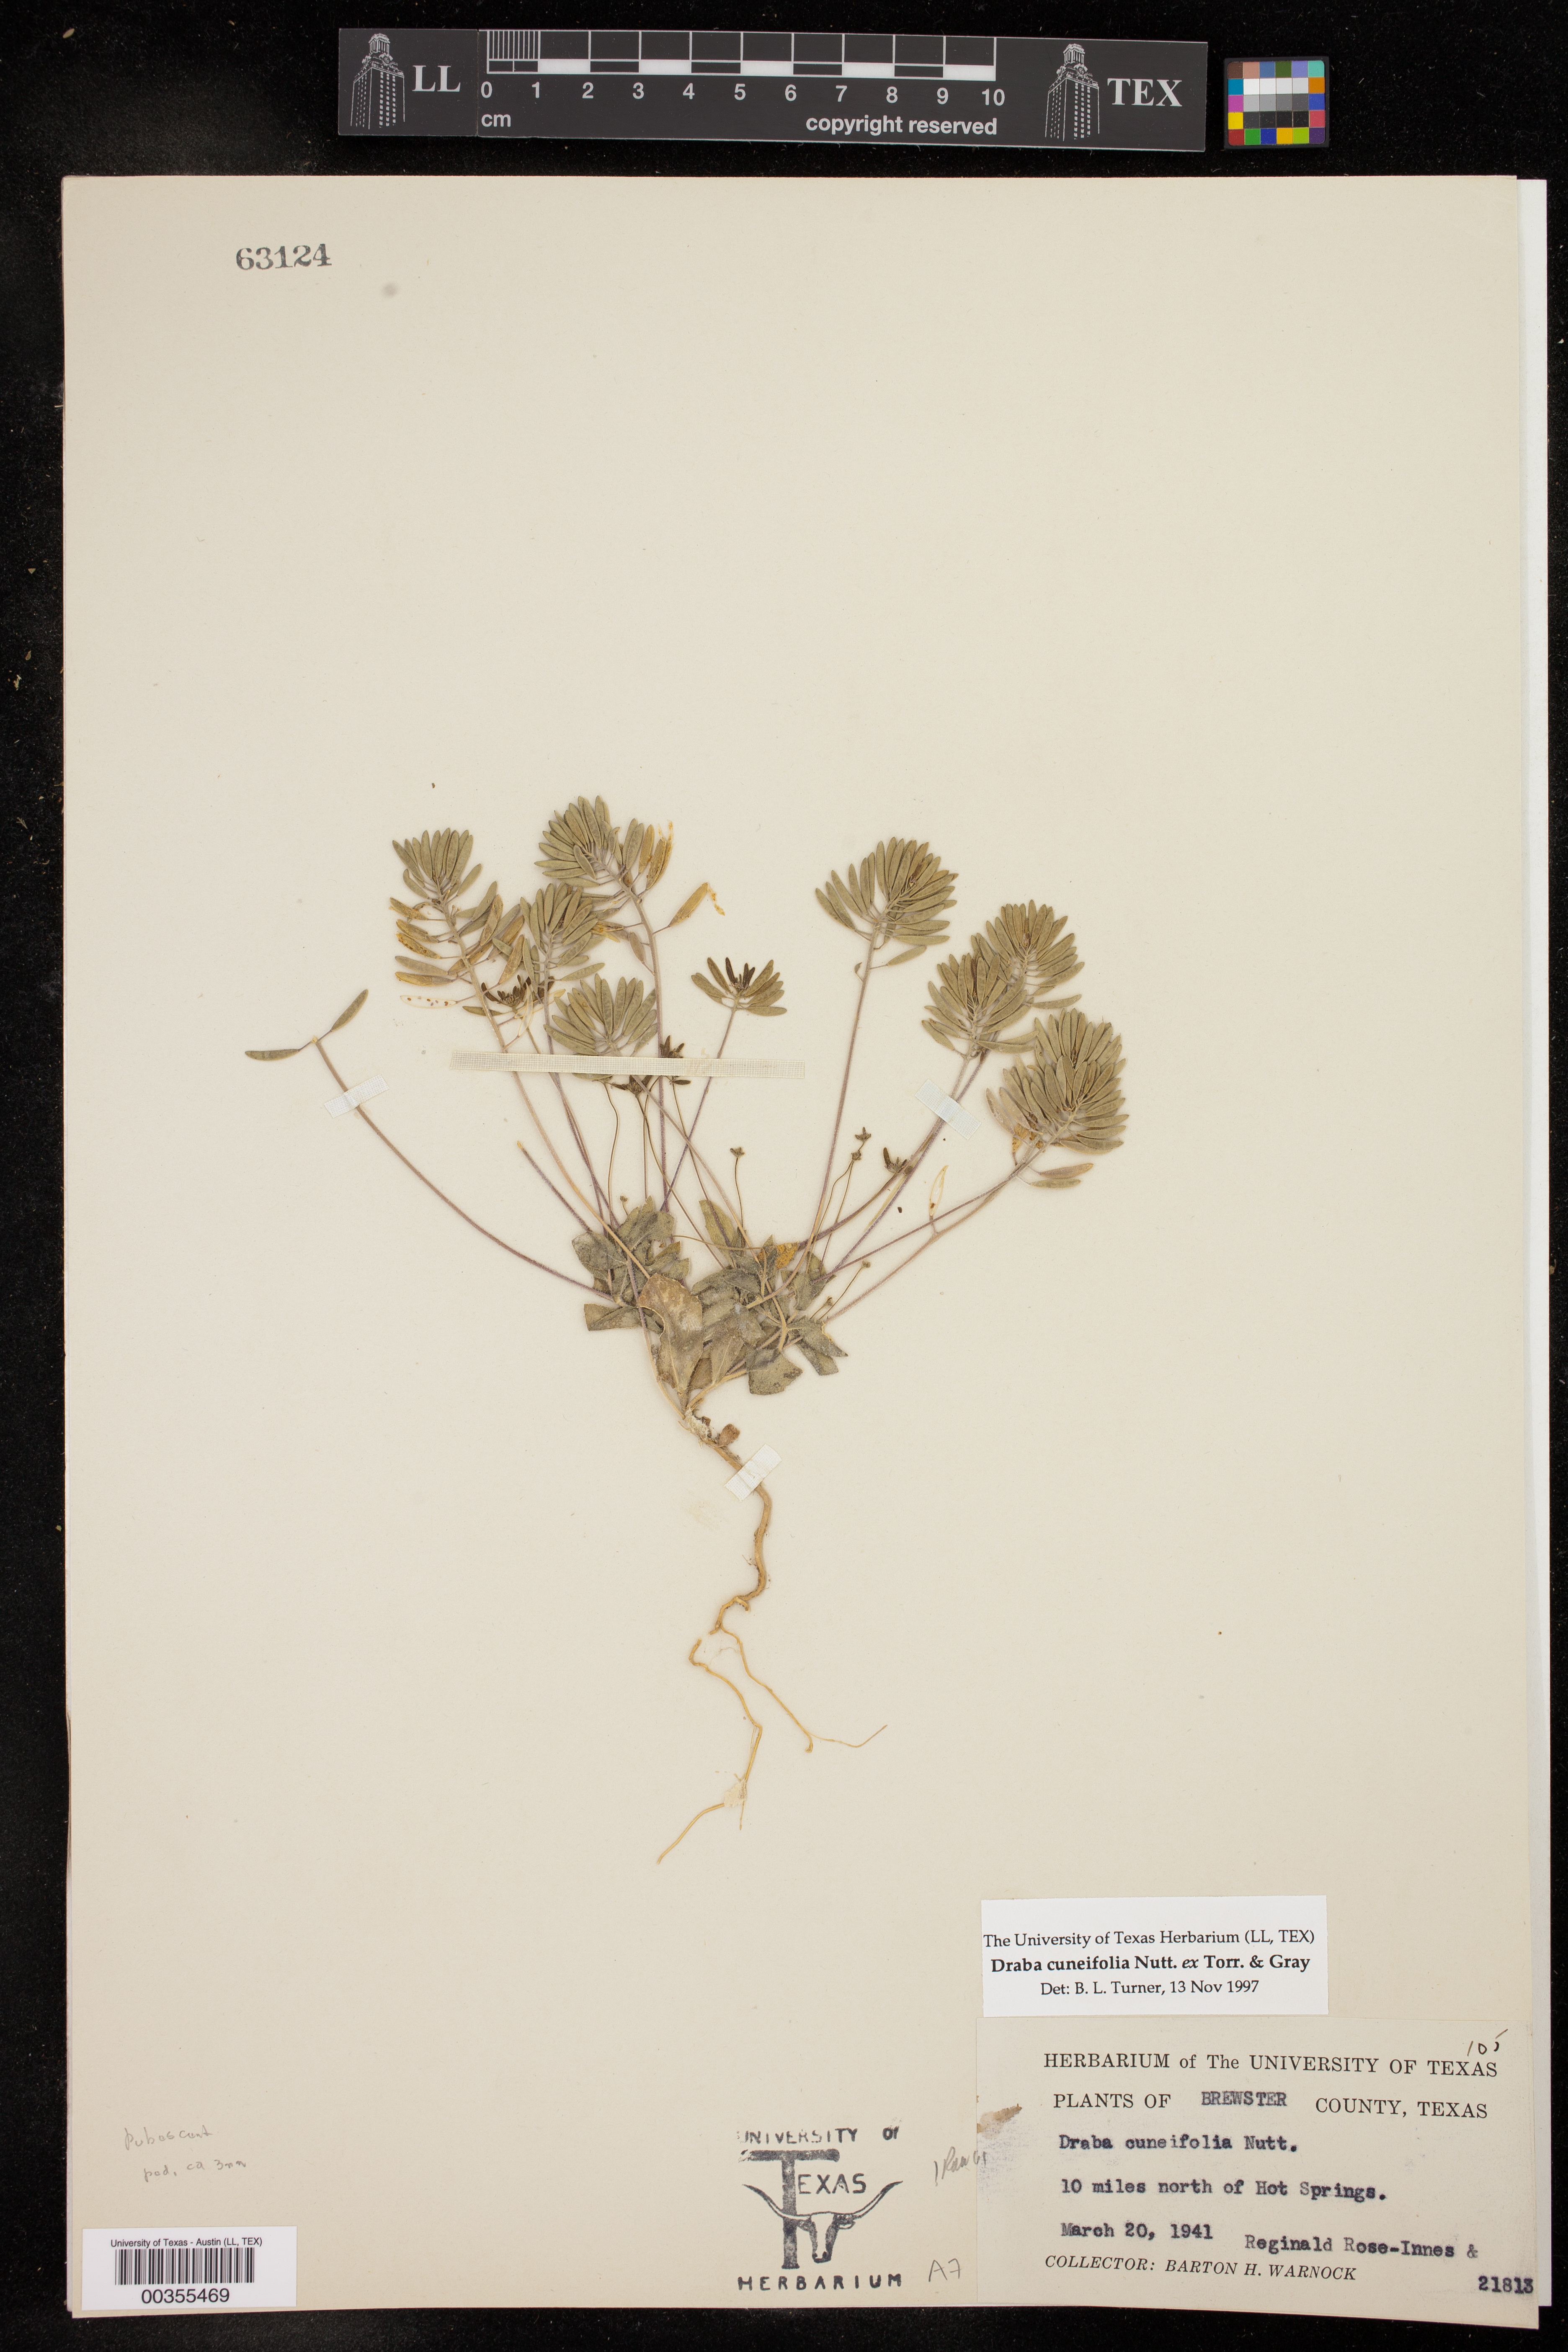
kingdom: Plantae
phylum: Tracheophyta
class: Magnoliopsida
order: Brassicales
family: Brassicaceae
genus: Tomostima
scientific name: Tomostima cuneifolia
